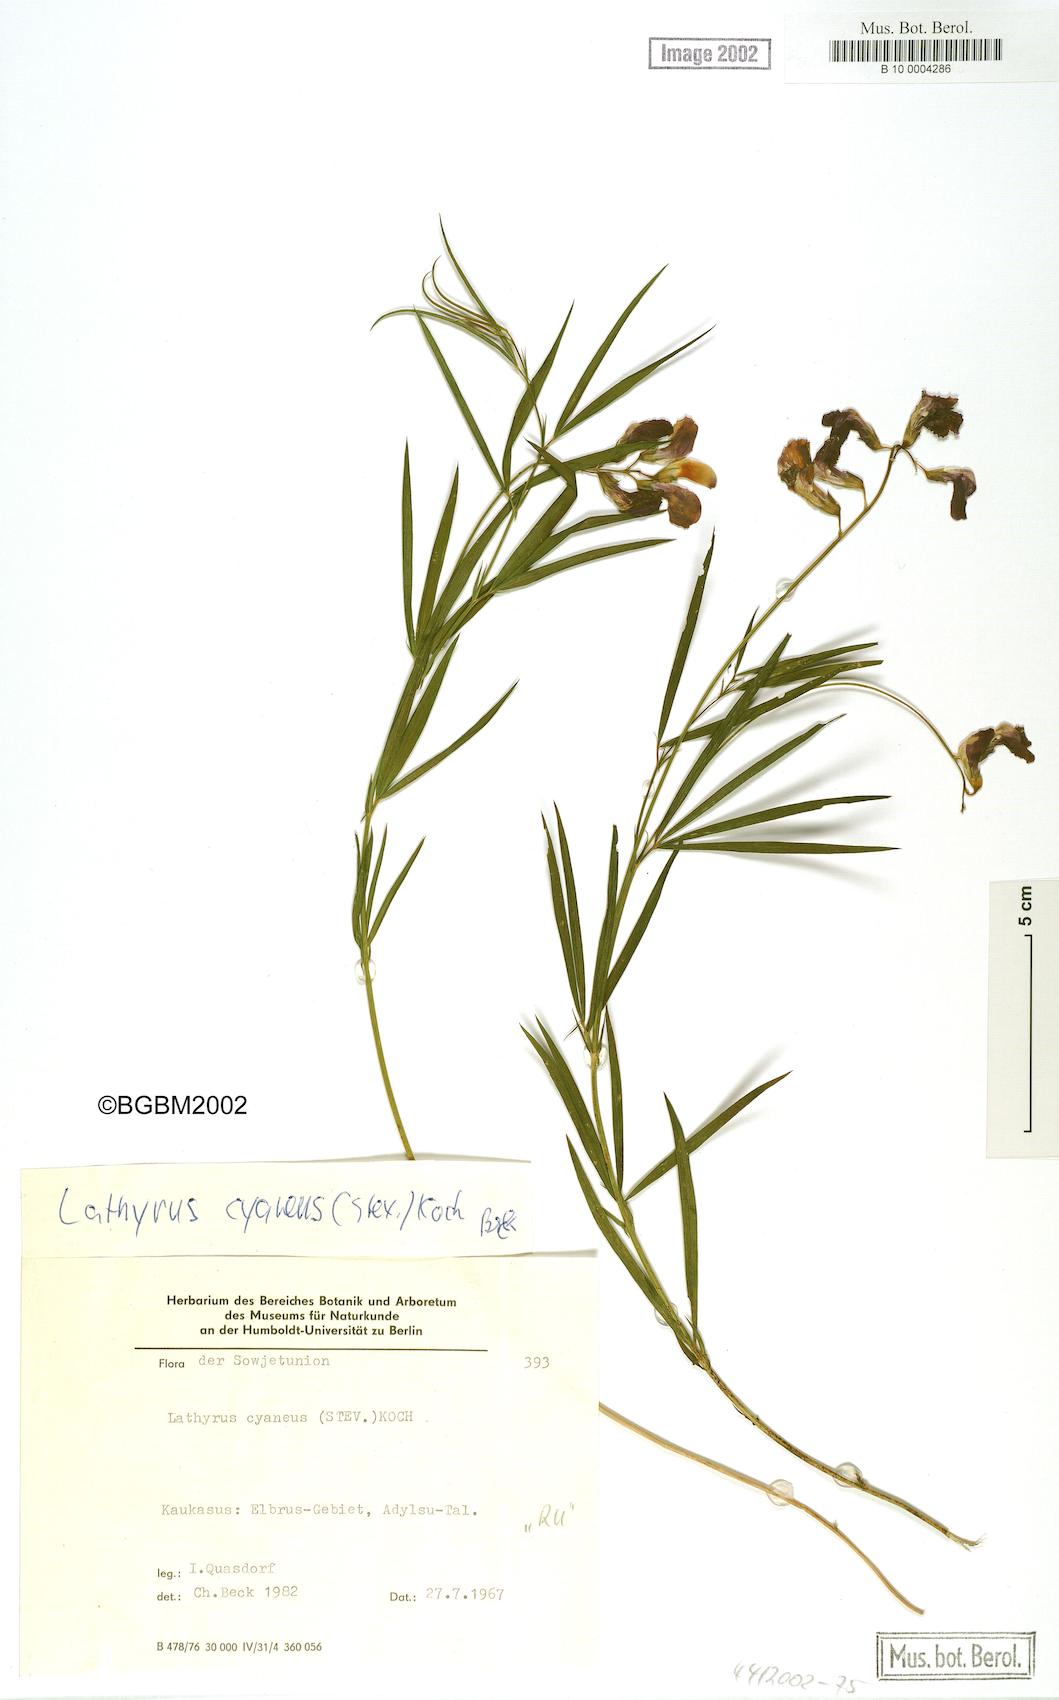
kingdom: Plantae
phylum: Tracheophyta
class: Magnoliopsida
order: Fabales
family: Fabaceae
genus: Lathyrus
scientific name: Lathyrus cyaneus
